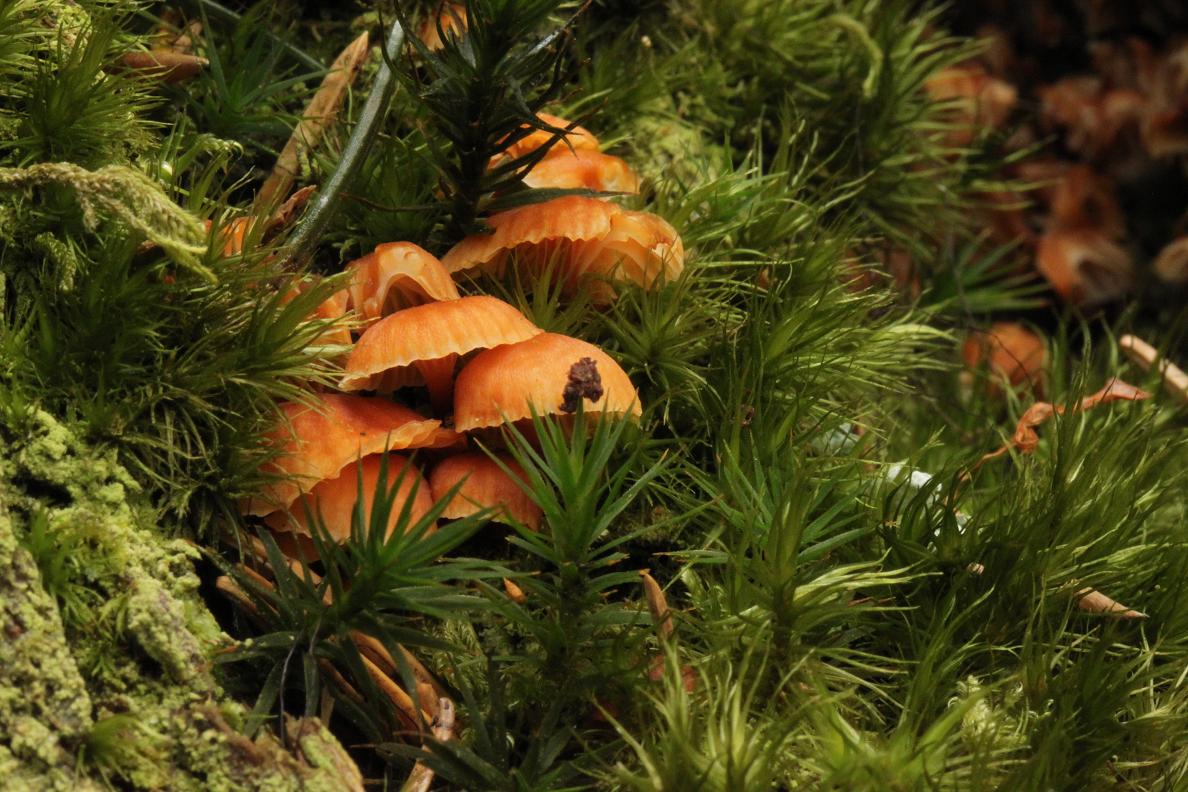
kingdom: Fungi
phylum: Basidiomycota
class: Agaricomycetes
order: Agaricales
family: Mycenaceae
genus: Xeromphalina
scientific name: Xeromphalina campanella
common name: klokke-tørhat
